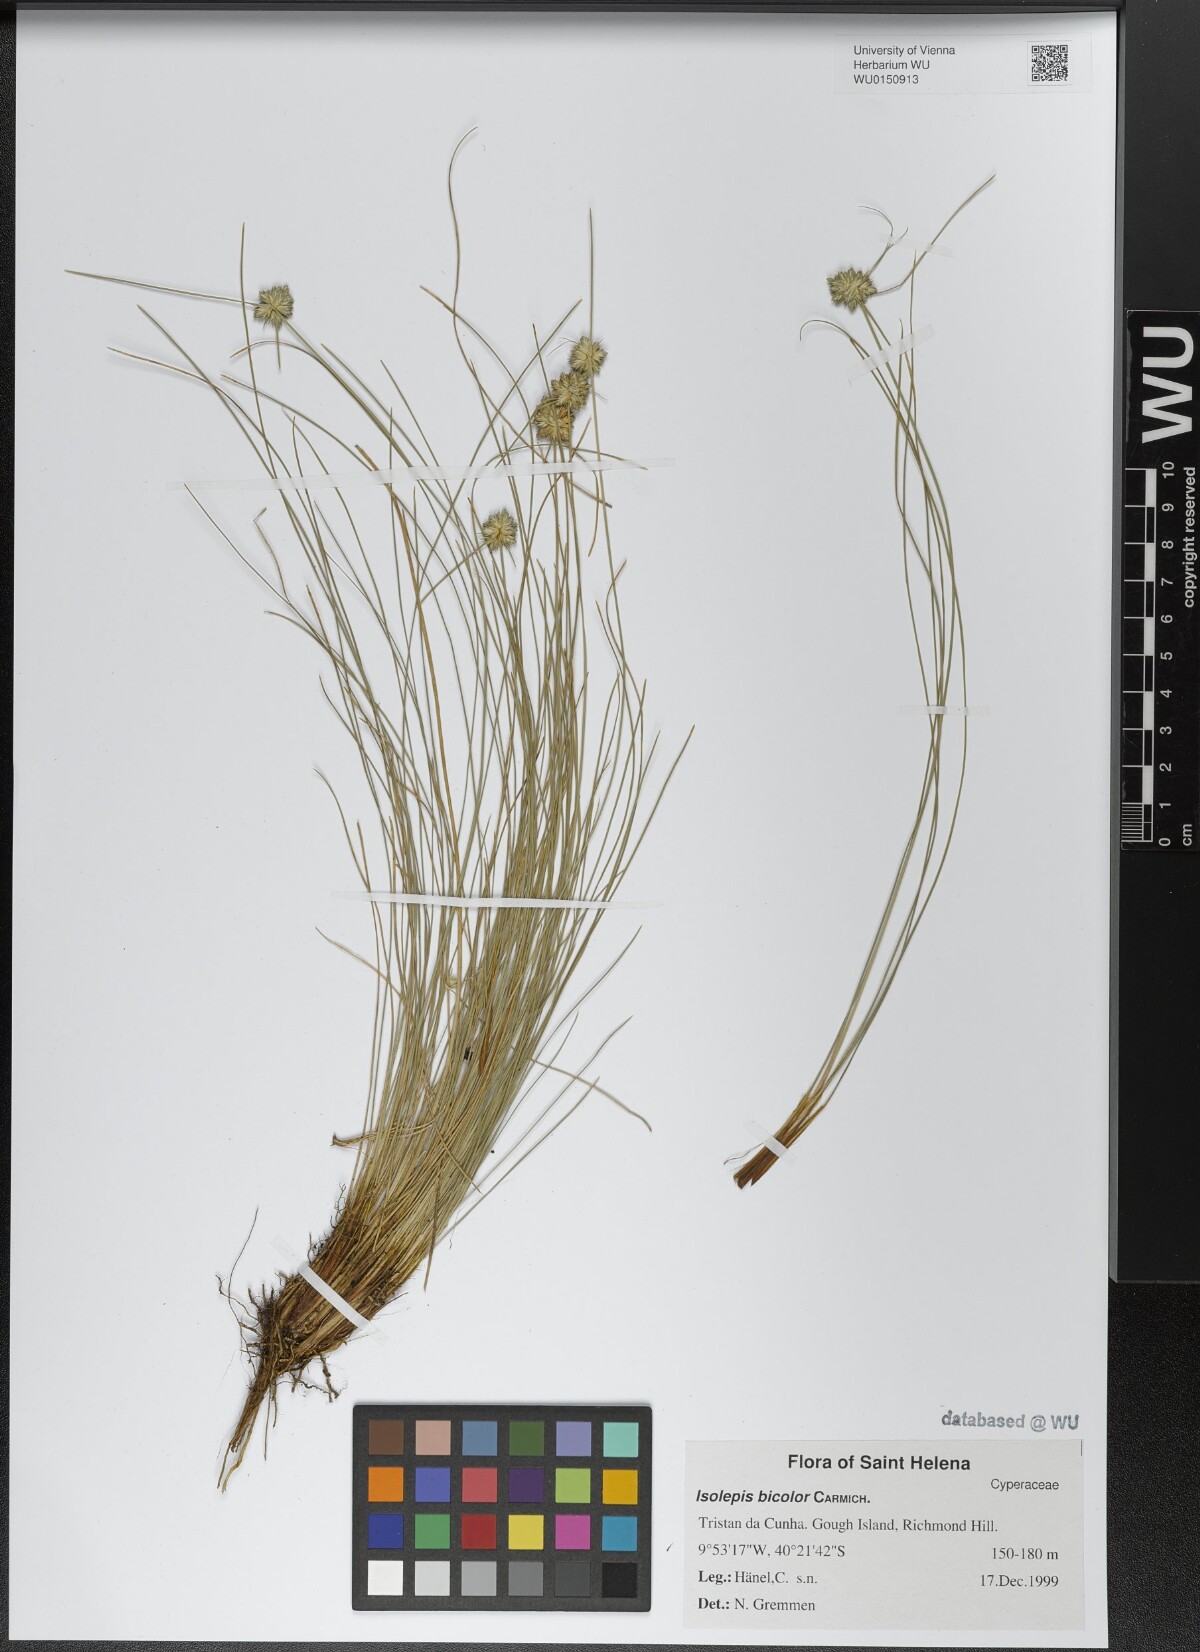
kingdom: Plantae
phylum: Tracheophyta
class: Liliopsida
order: Poales
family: Cyperaceae
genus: Isolepis
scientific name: Isolepis bicolor
